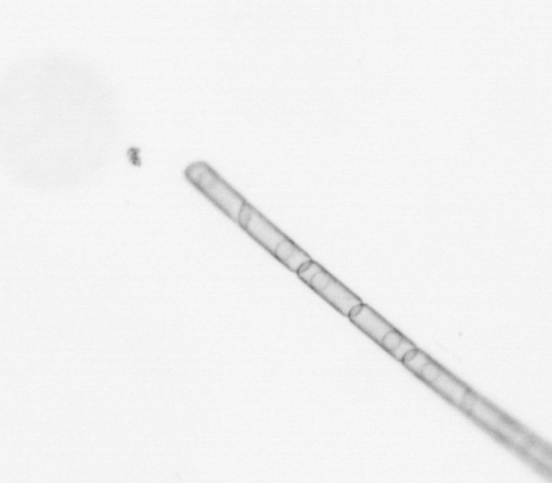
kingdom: Chromista
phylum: Ochrophyta
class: Bacillariophyceae
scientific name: Bacillariophyceae
